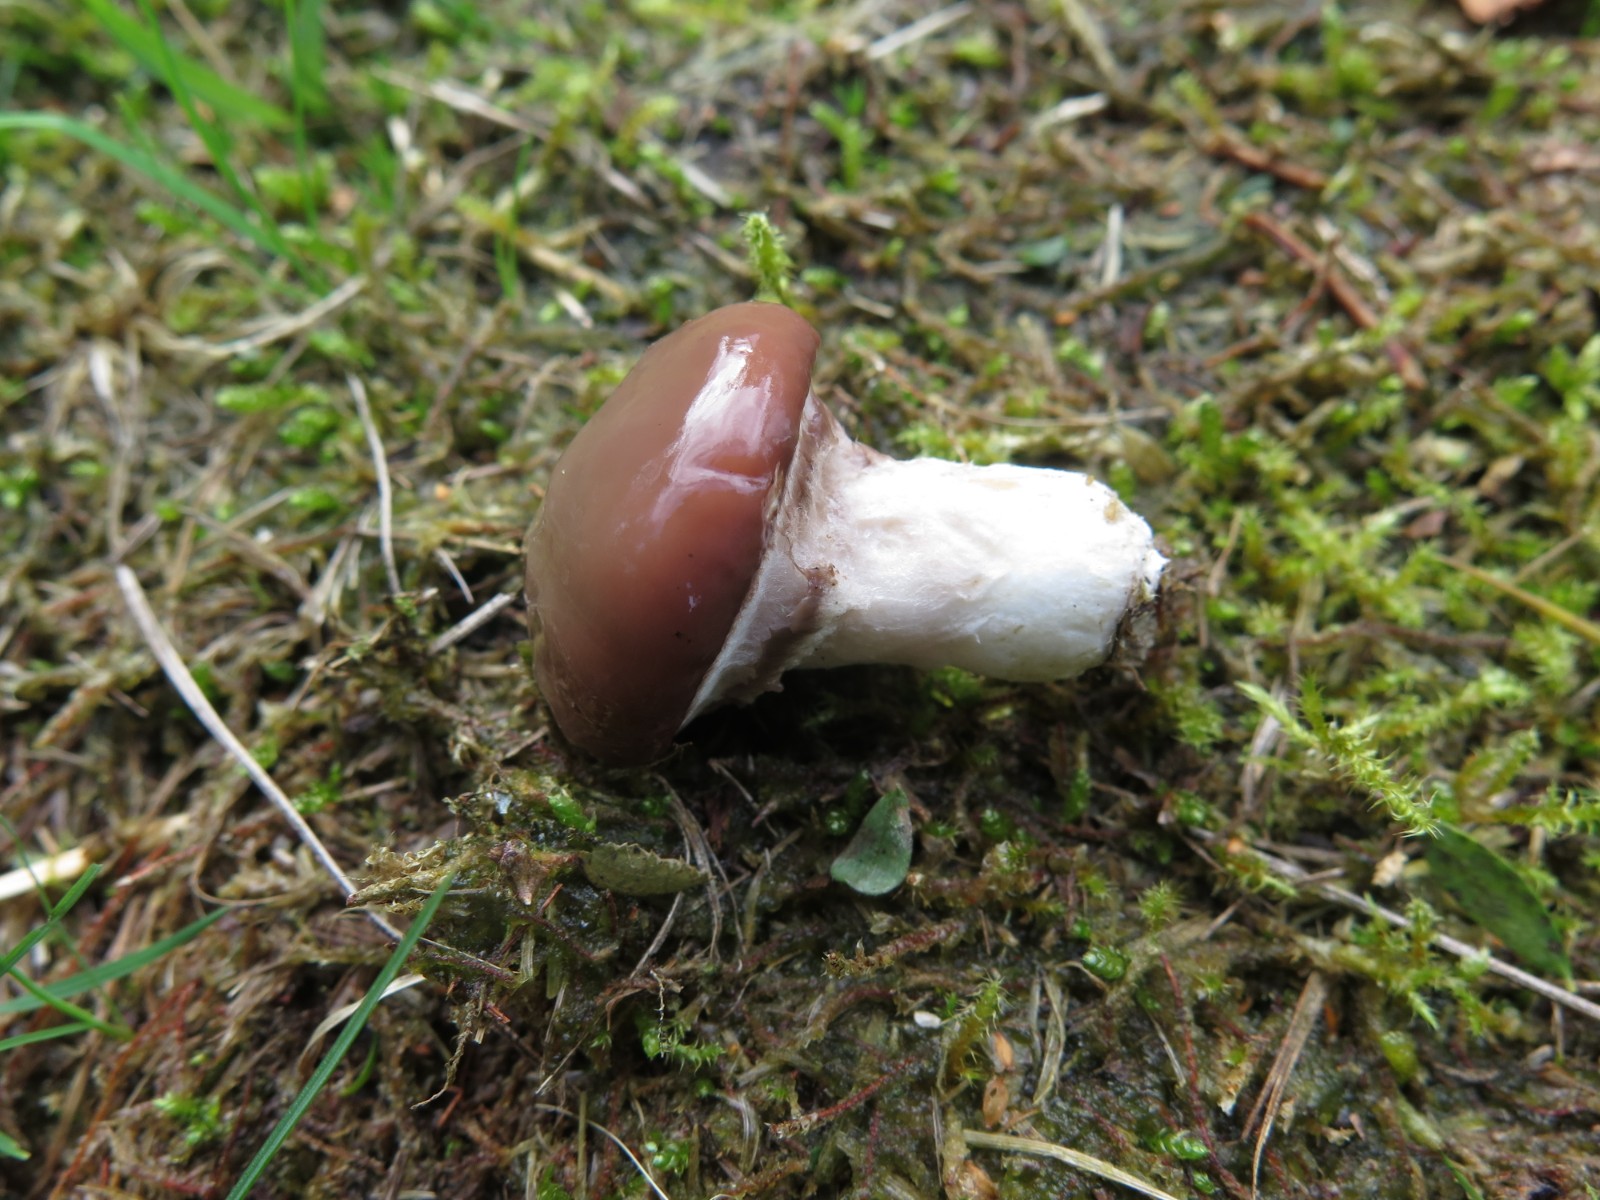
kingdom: Fungi
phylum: Basidiomycota
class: Agaricomycetes
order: Boletales
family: Suillaceae
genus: Suillus
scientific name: Suillus luteus
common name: brungul slimrørhat
